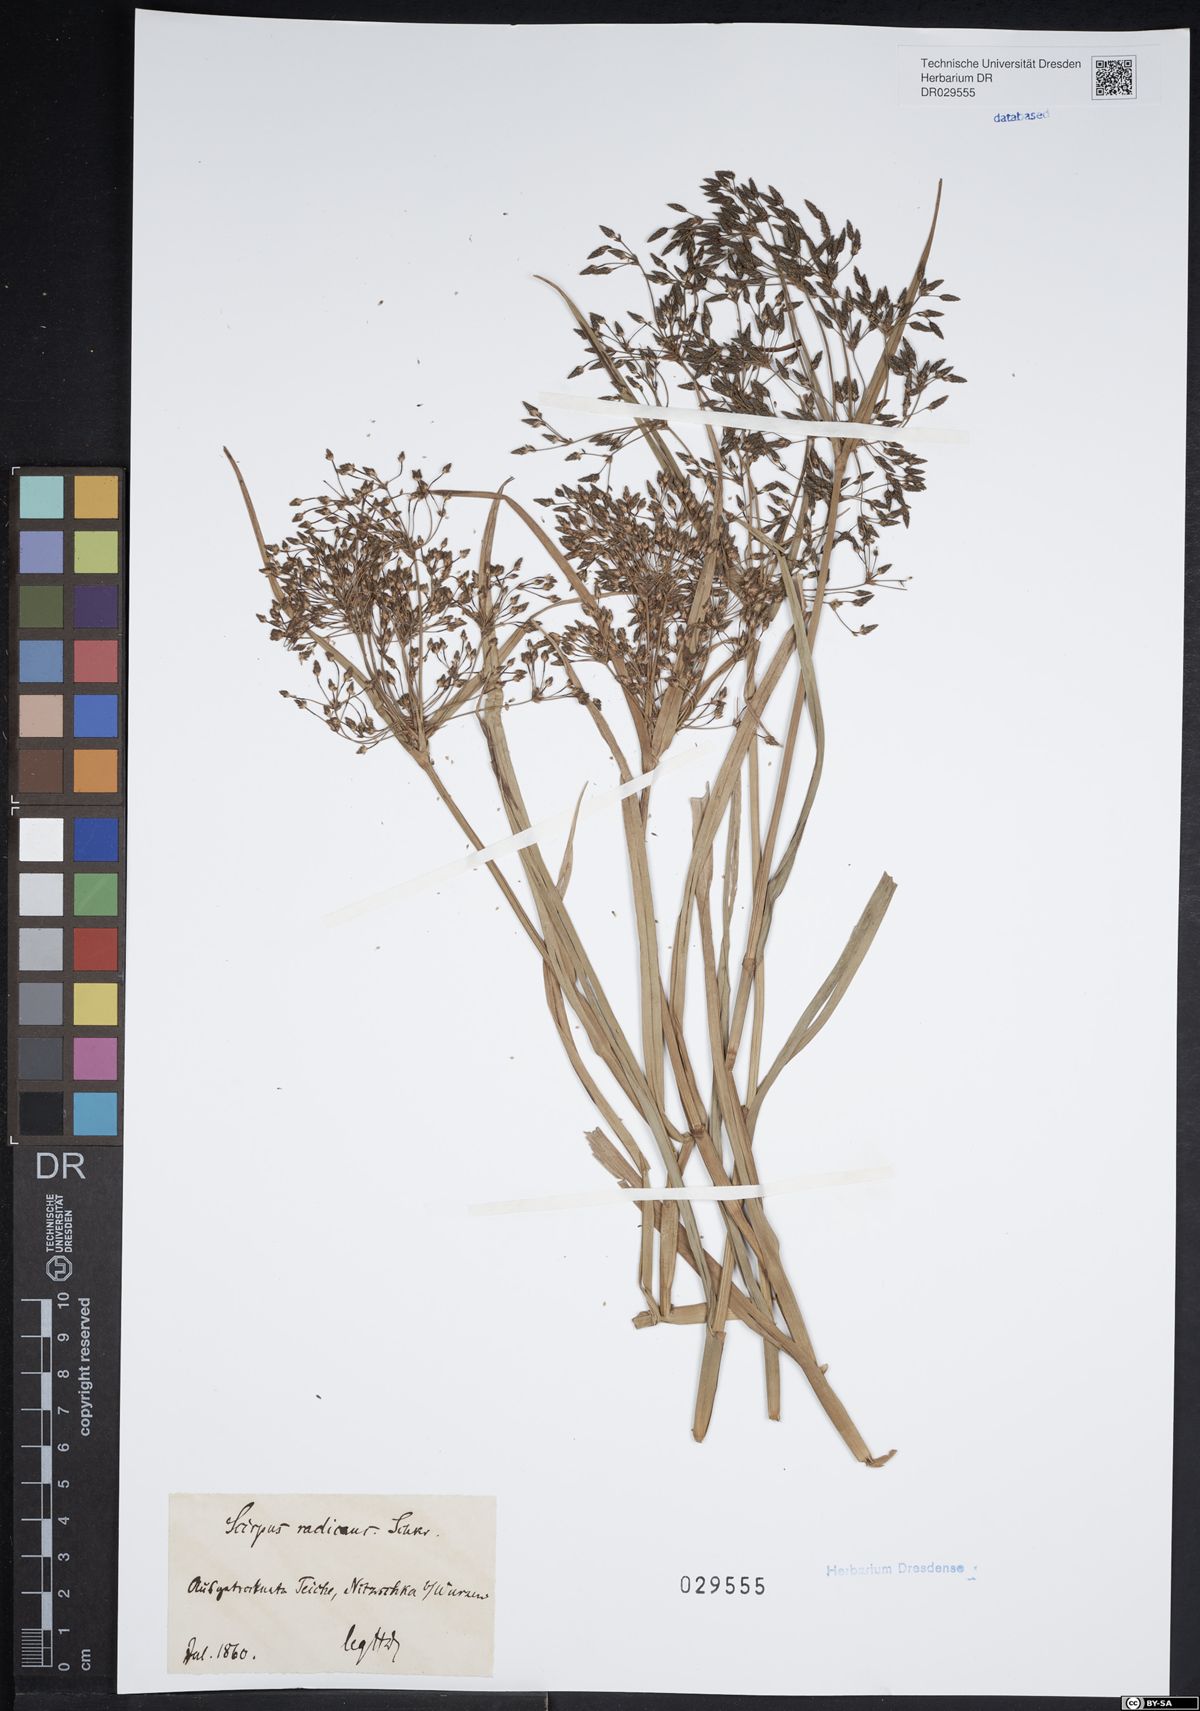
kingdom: Plantae
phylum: Tracheophyta
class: Liliopsida
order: Poales
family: Cyperaceae
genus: Scirpus
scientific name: Scirpus radicans
